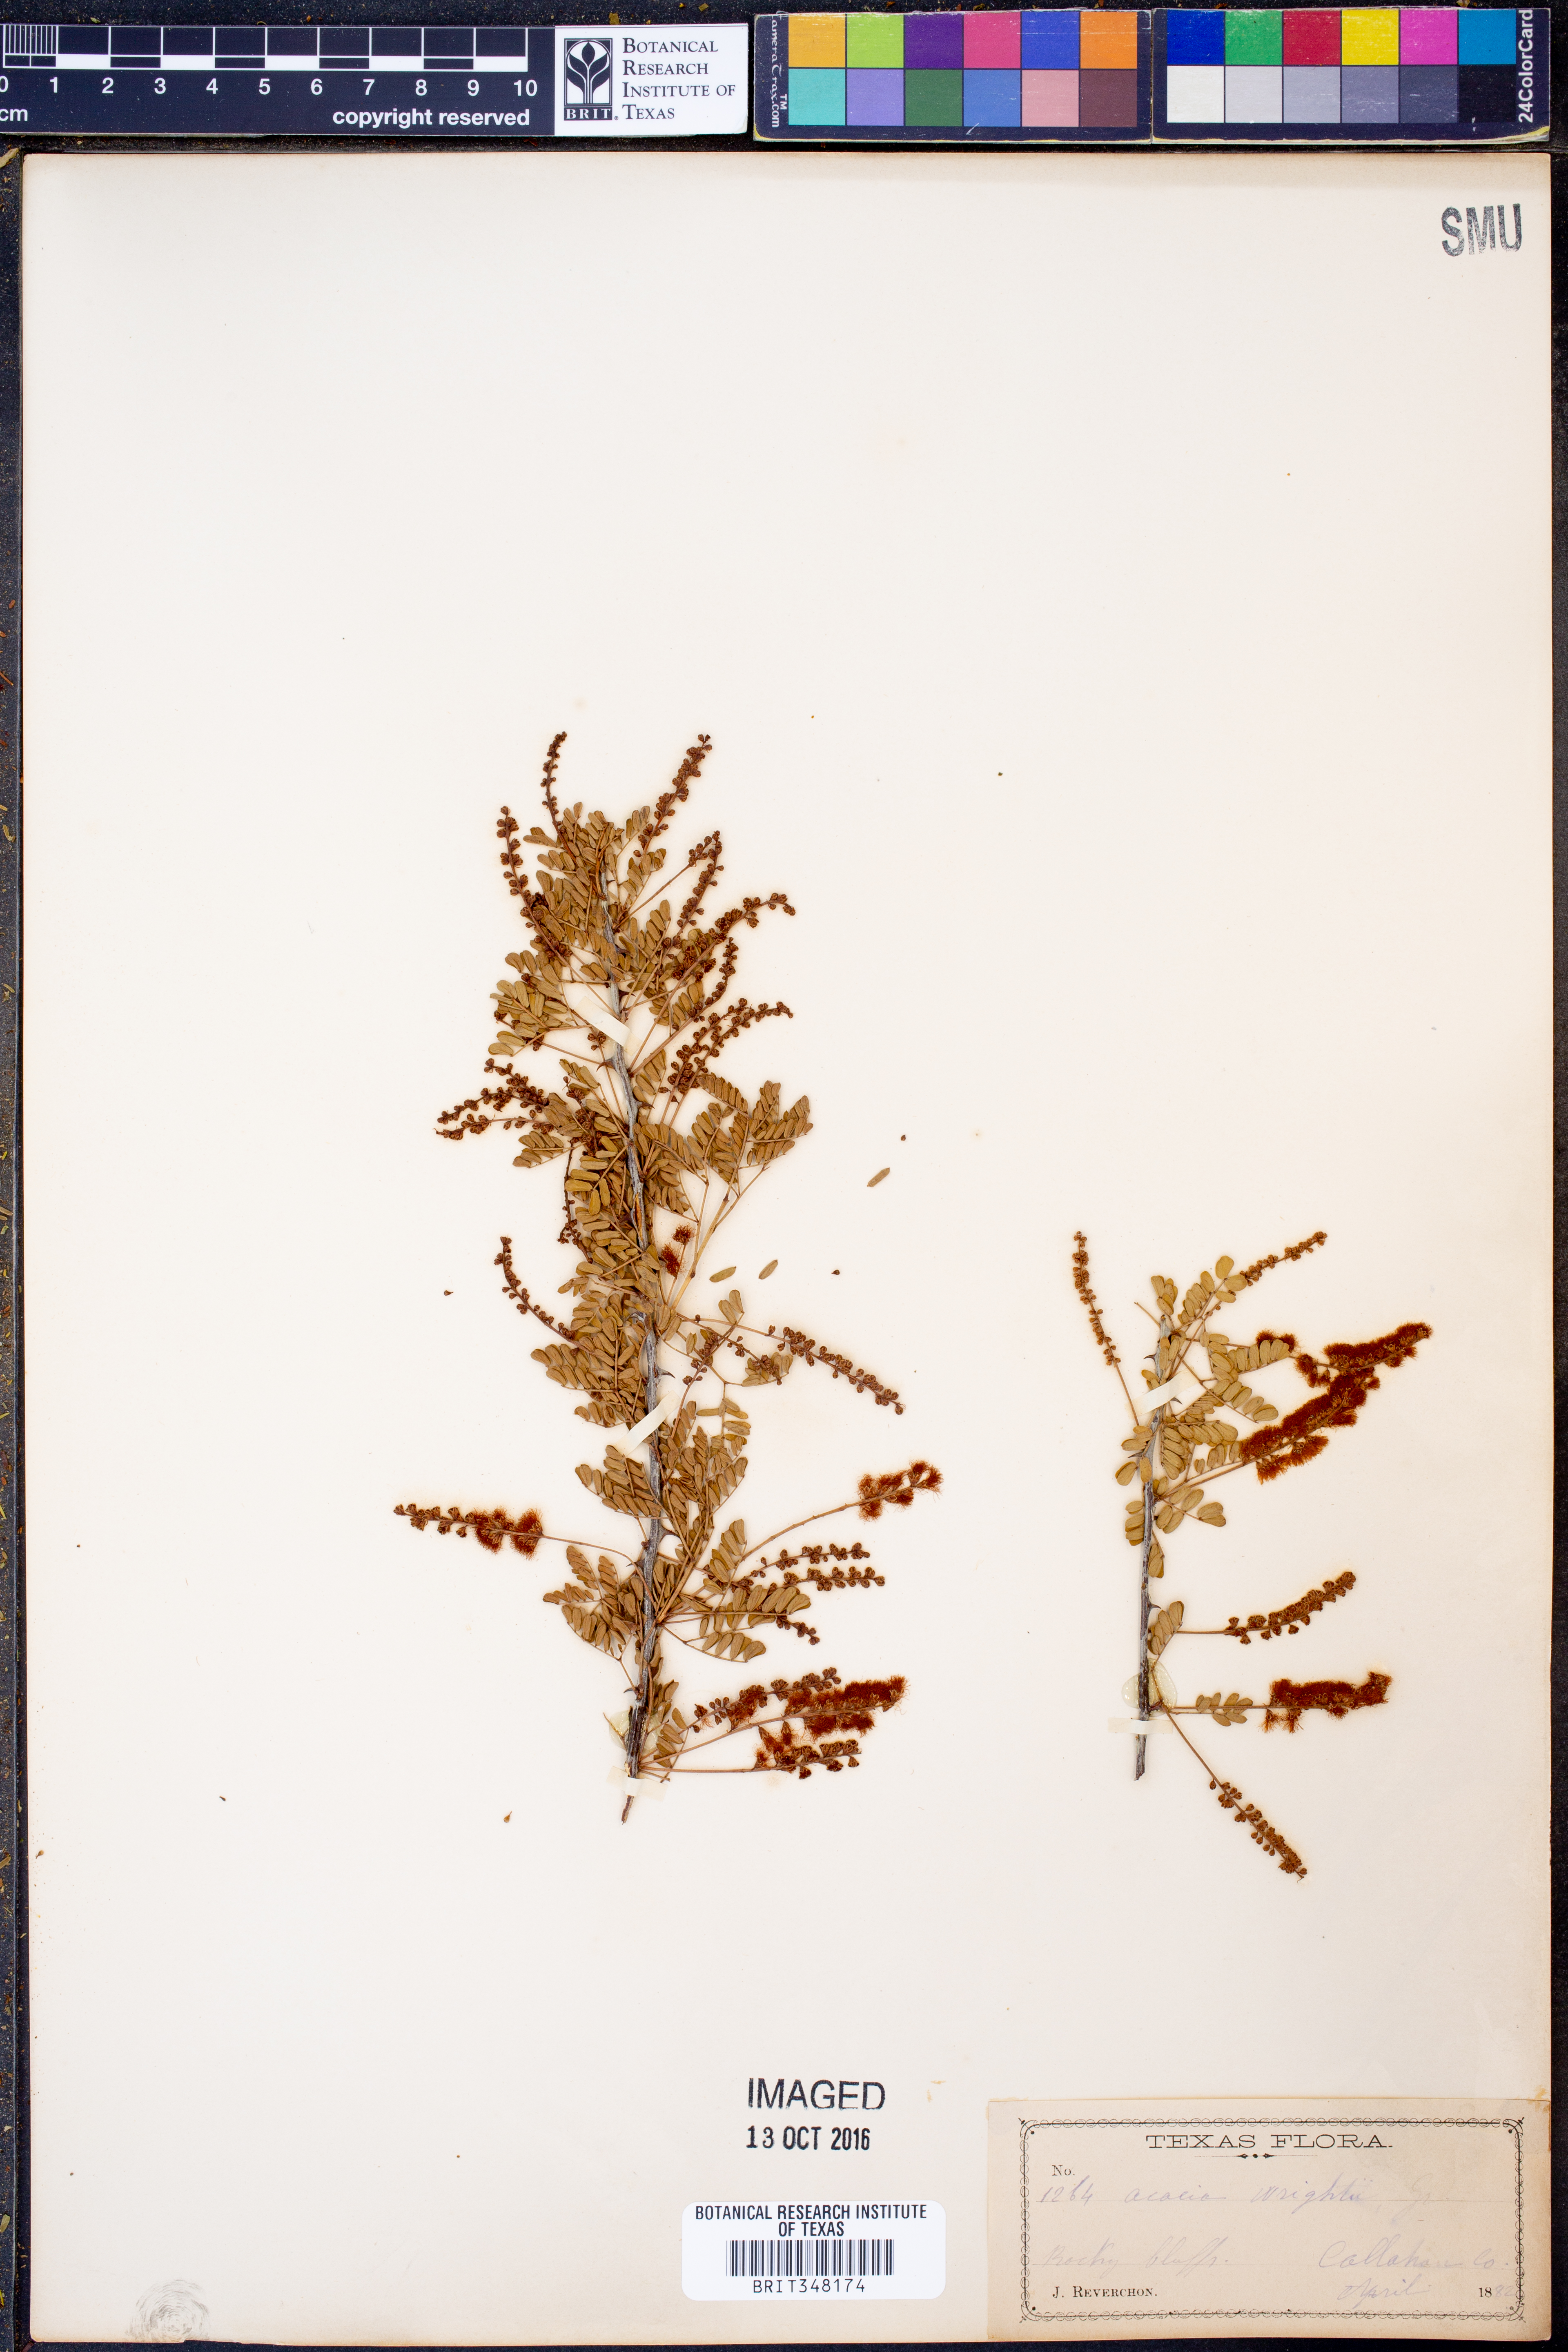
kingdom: Plantae
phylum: Tracheophyta
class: Magnoliopsida
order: Fabales
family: Fabaceae
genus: Senegalia
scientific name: Senegalia wrightii
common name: Texas cat's-claw
